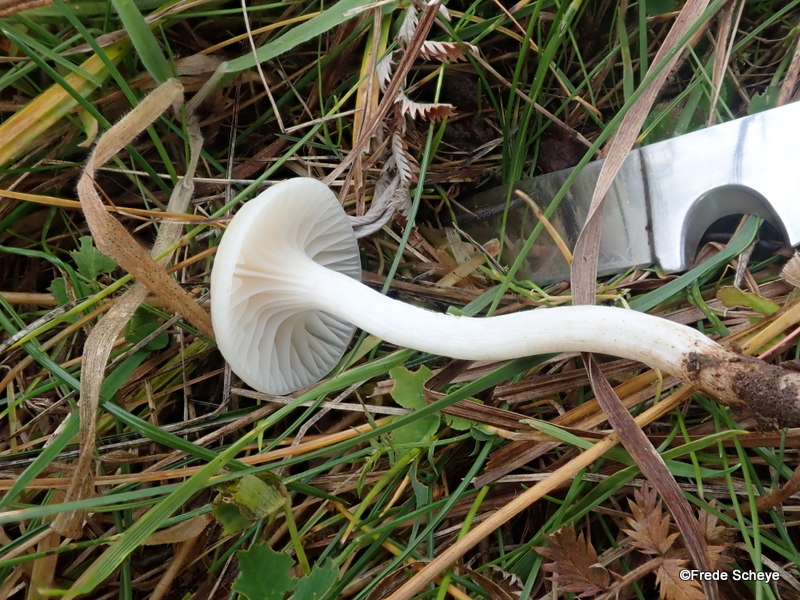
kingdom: Fungi
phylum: Basidiomycota
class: Agaricomycetes
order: Agaricales
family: Hygrophoraceae
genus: Cuphophyllus
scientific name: Cuphophyllus virgineus
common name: snehvid vokshat
